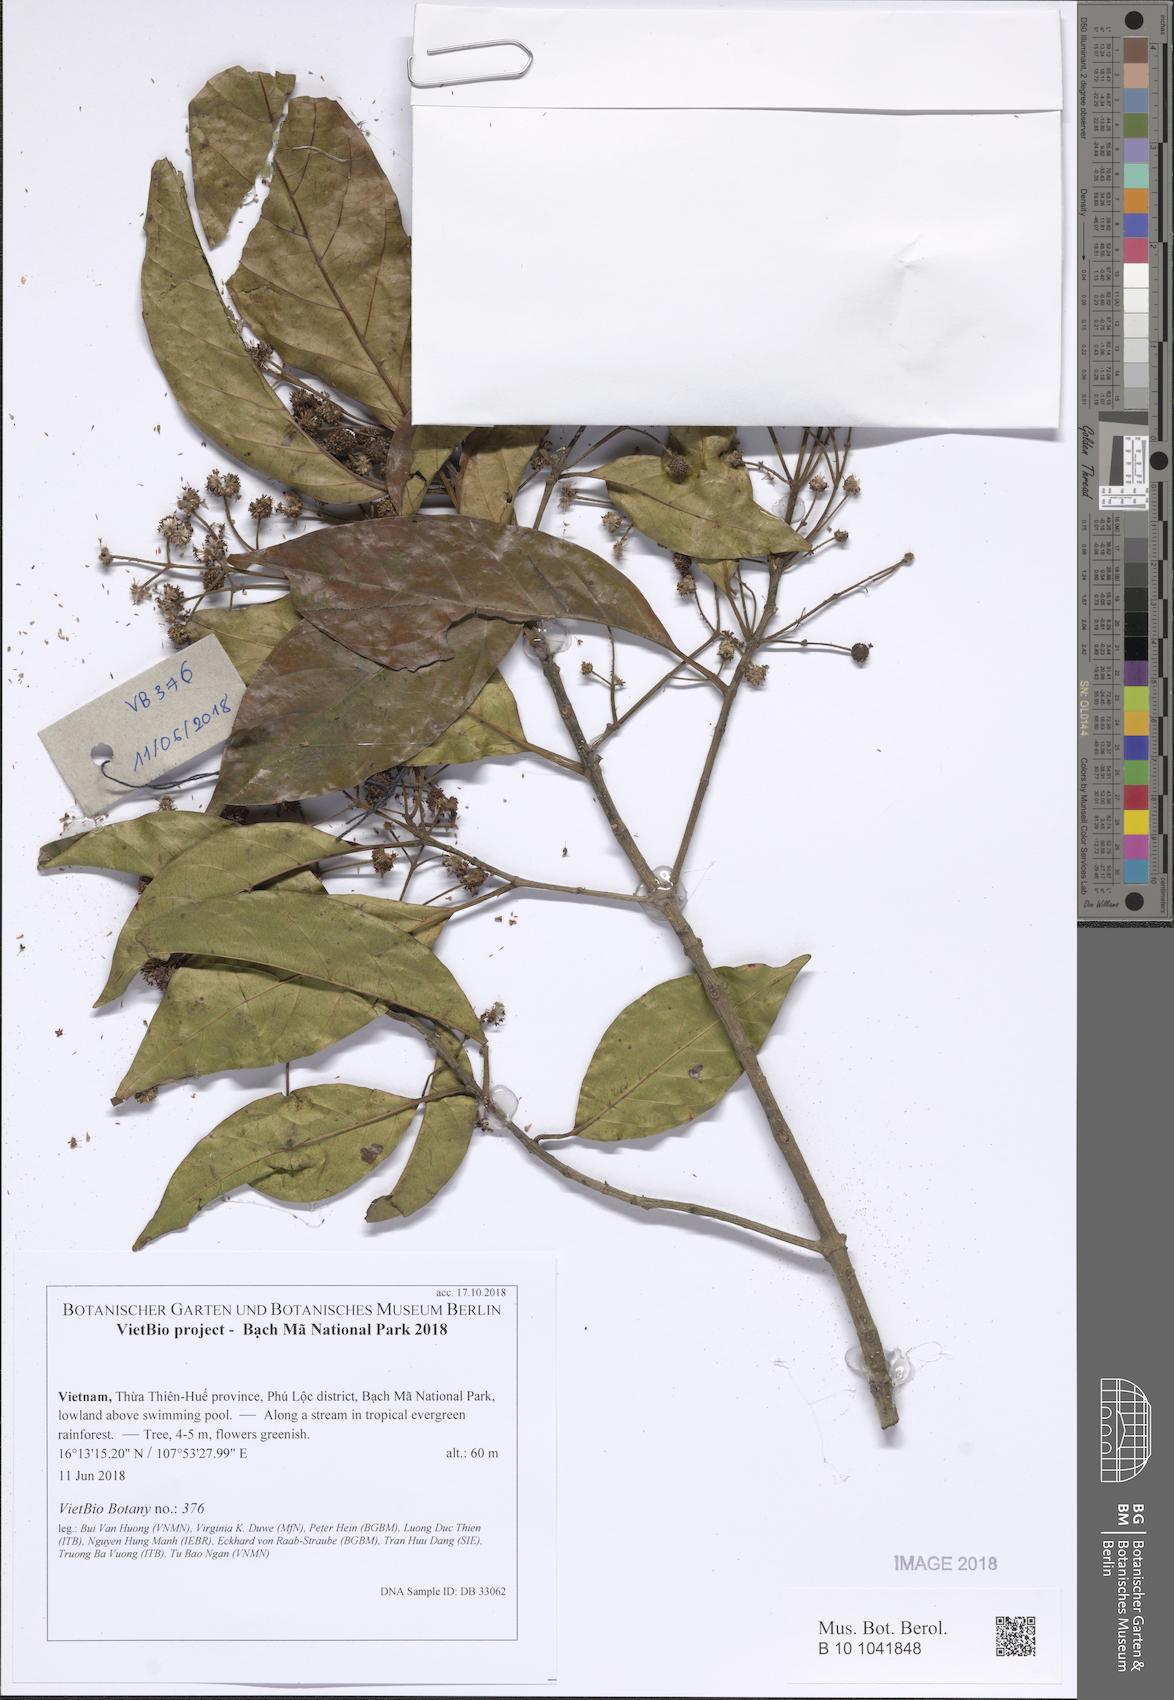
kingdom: Plantae
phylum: Tracheophyta
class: Magnoliopsida
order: Gentianales
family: Rubiaceae
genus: Adina
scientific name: Adina trichotoma
